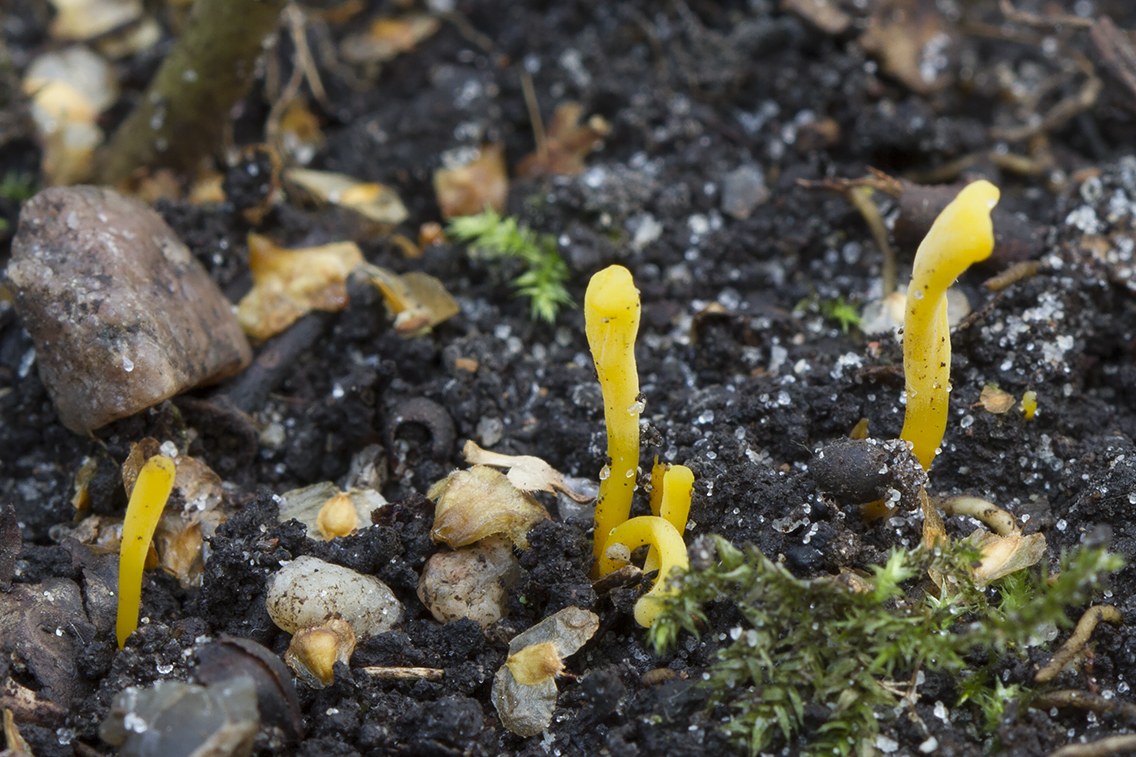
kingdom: Fungi
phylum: Basidiomycota
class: Agaricomycetes
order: Agaricales
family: Clavariaceae
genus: Clavulinopsis
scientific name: Clavulinopsis helvola
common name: orangegul køllesvamp
